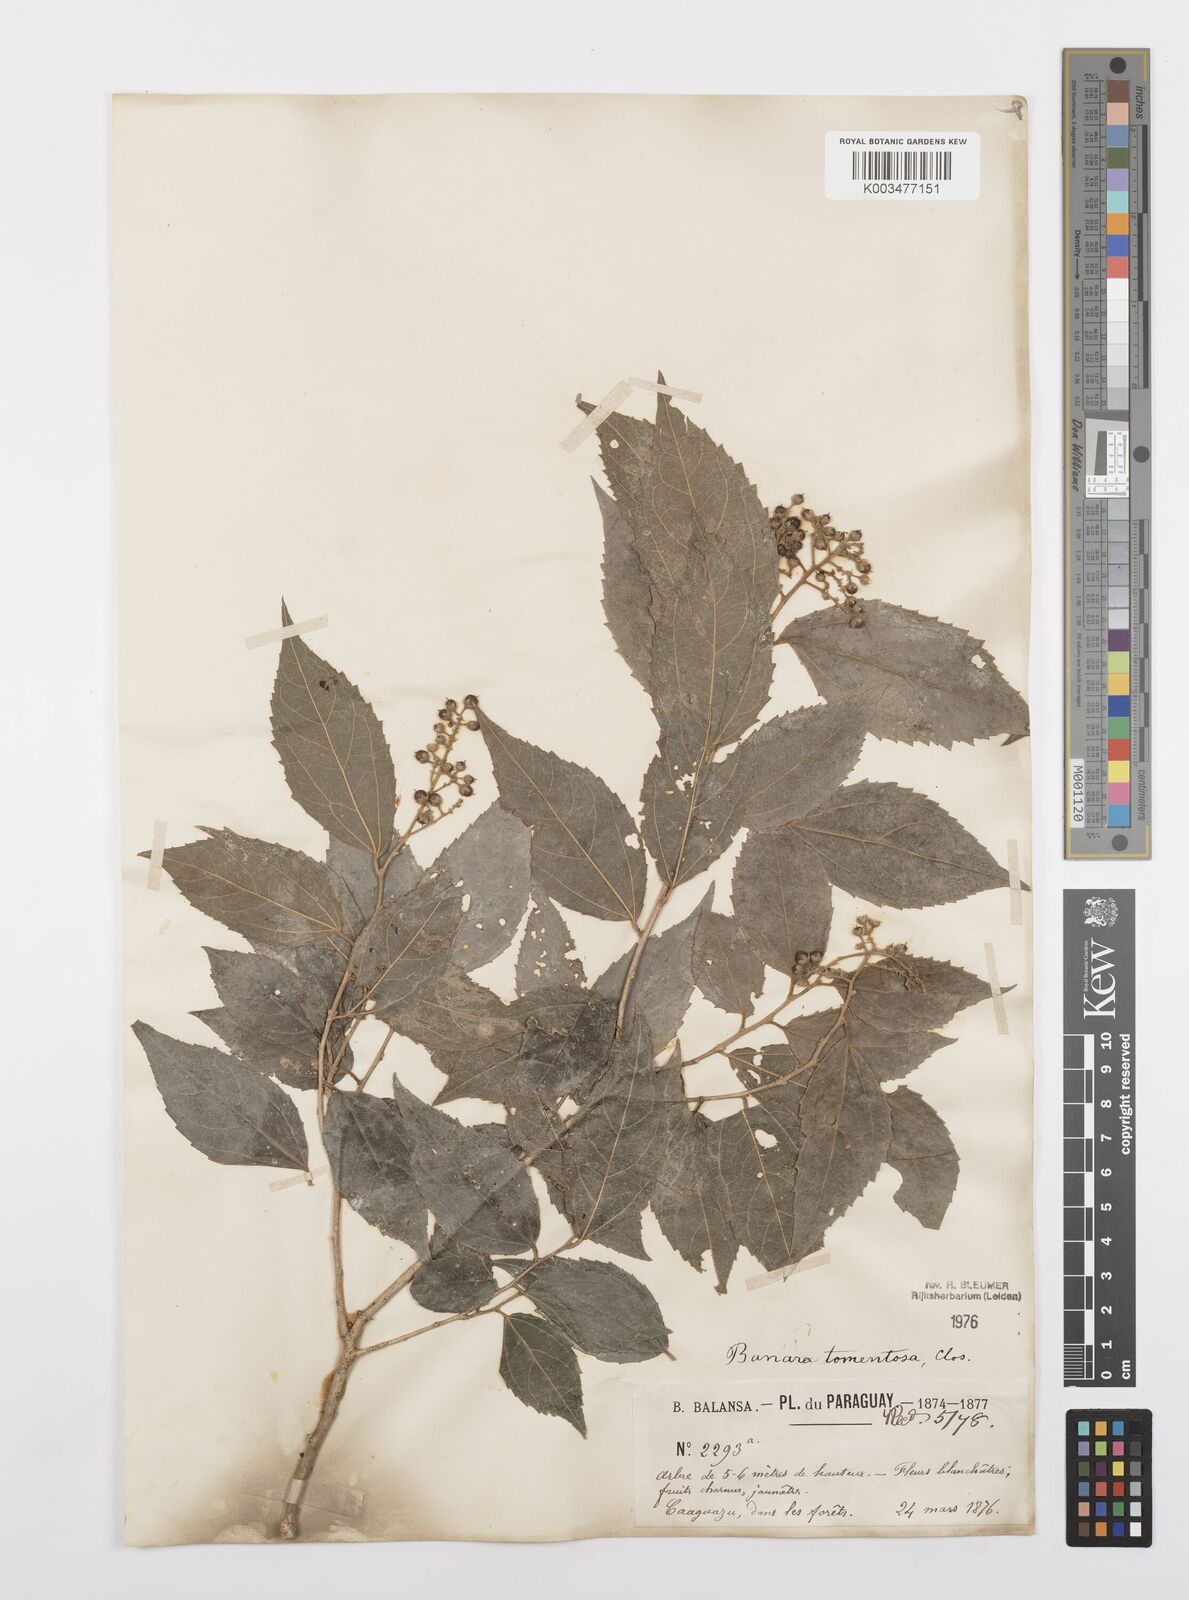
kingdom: Plantae
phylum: Tracheophyta
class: Magnoliopsida
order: Malpighiales
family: Salicaceae
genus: Banara
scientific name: Banara tomentosa
